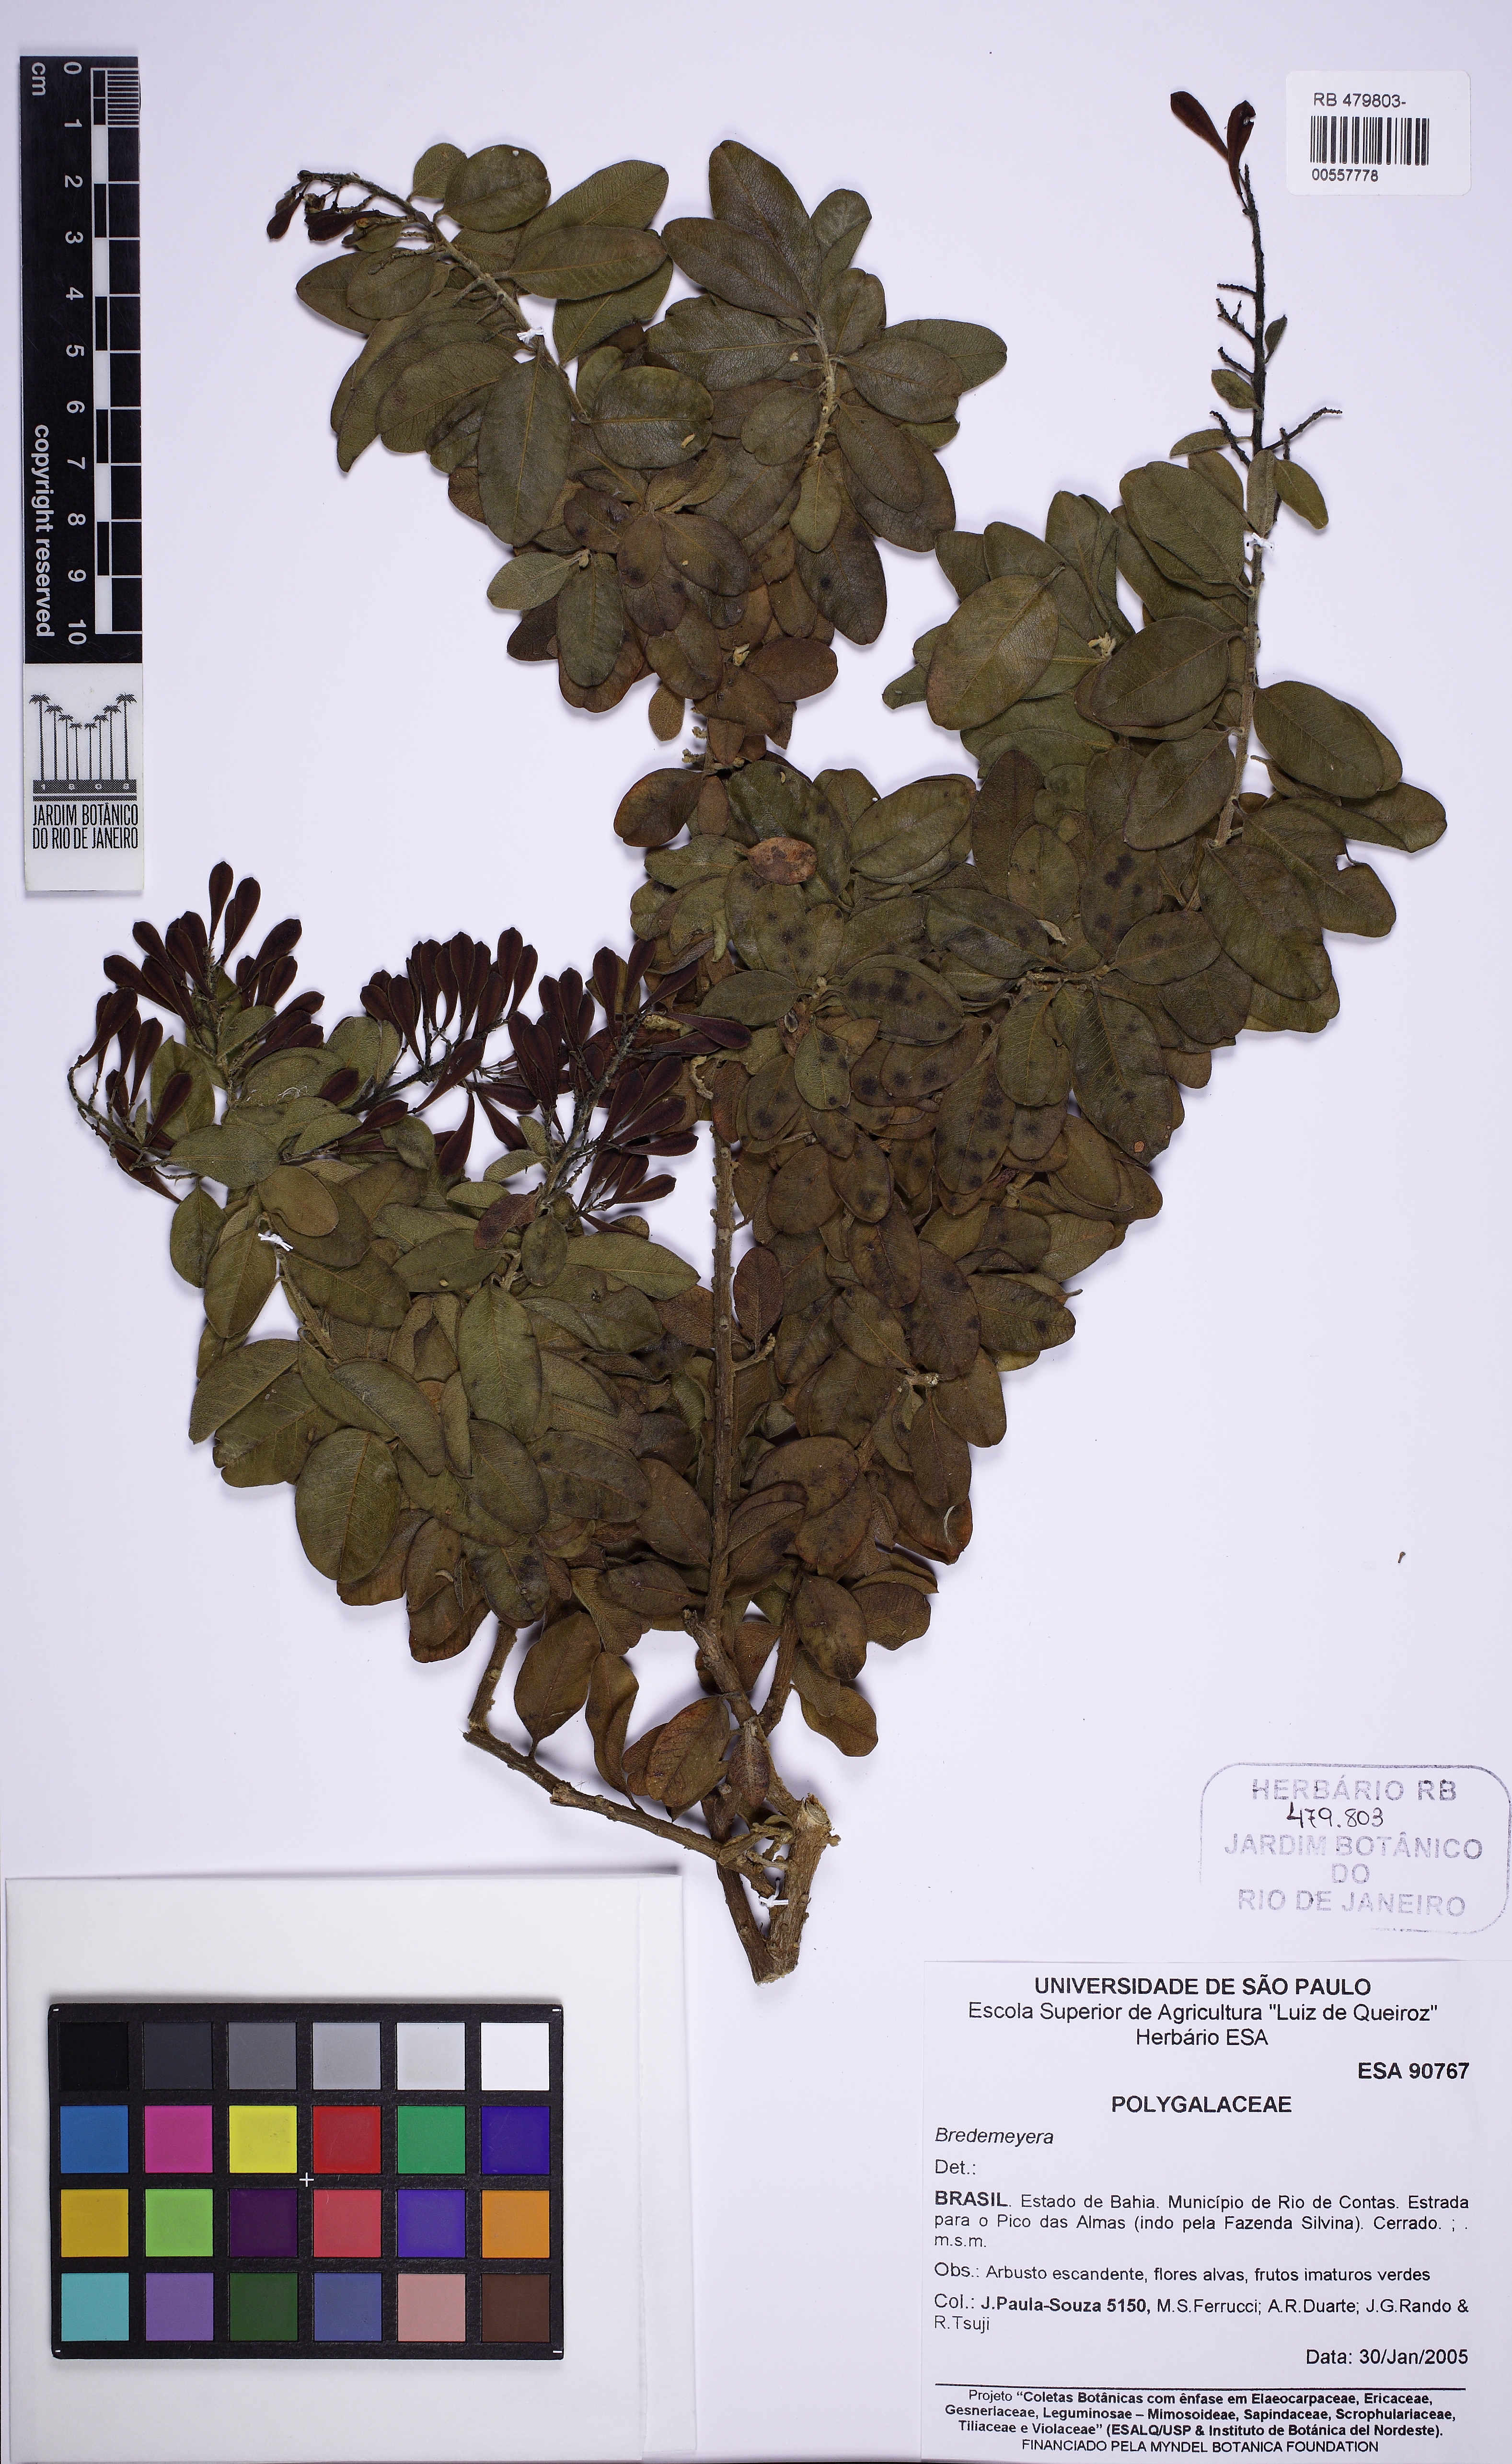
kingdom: Plantae
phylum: Tracheophyta
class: Magnoliopsida
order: Fabales
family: Polygalaceae
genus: Bredemeyera
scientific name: Bredemeyera brevifolia
